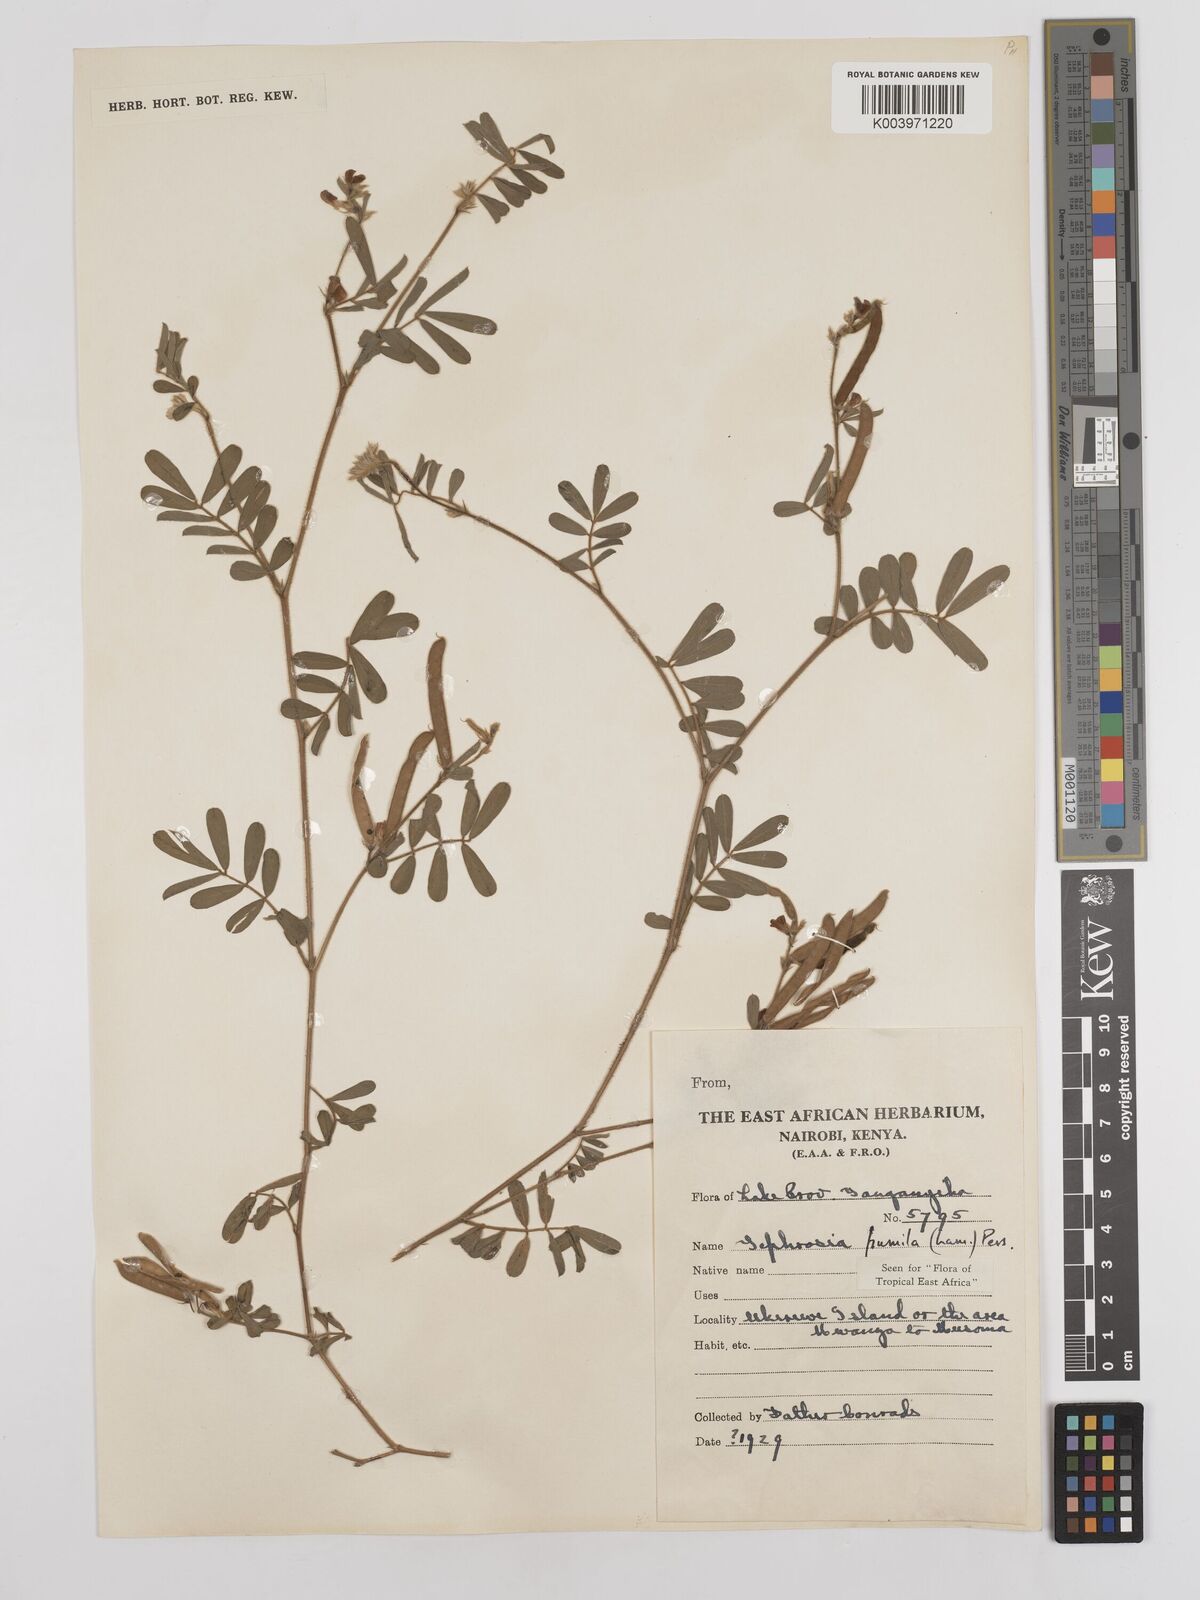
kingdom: Plantae
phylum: Tracheophyta
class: Magnoliopsida
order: Fabales
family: Fabaceae
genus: Tephrosia
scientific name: Tephrosia pumila
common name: Indigo sauvage
